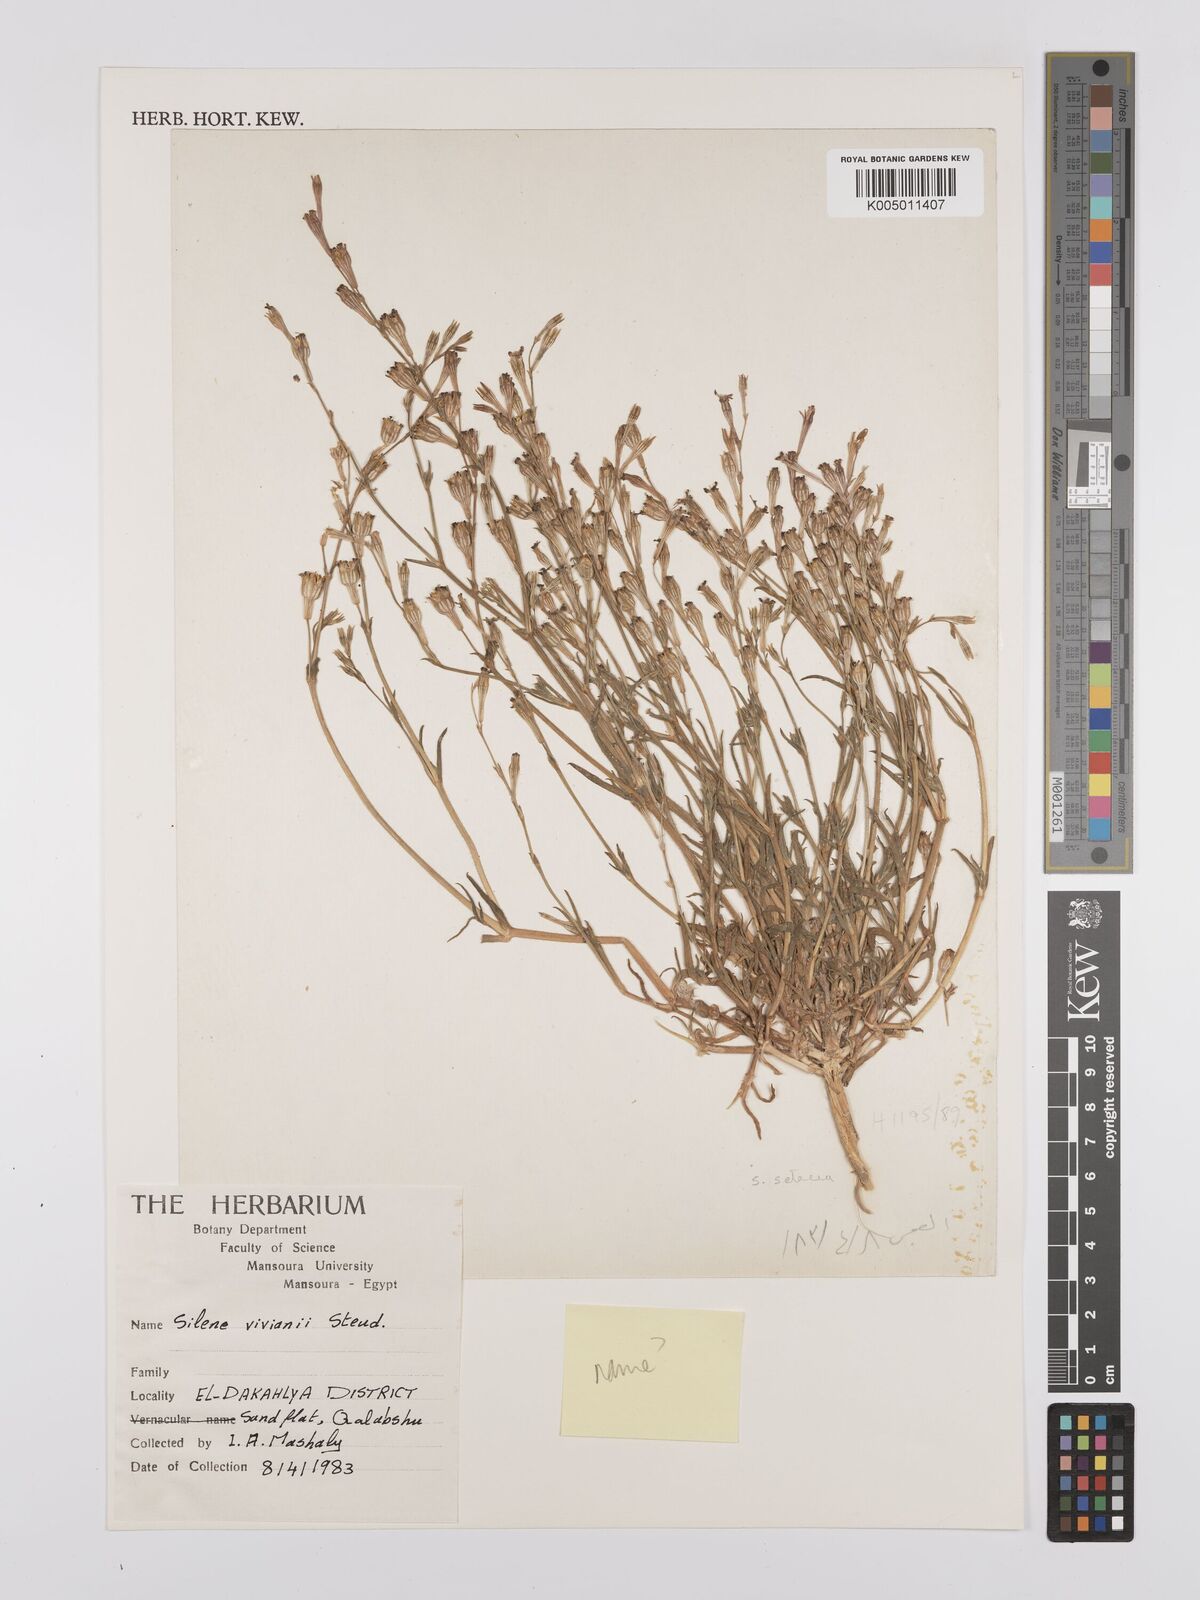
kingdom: Plantae
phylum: Tracheophyta
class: Magnoliopsida
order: Caryophyllales
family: Caryophyllaceae
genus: Silene
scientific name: Silene vivianii
